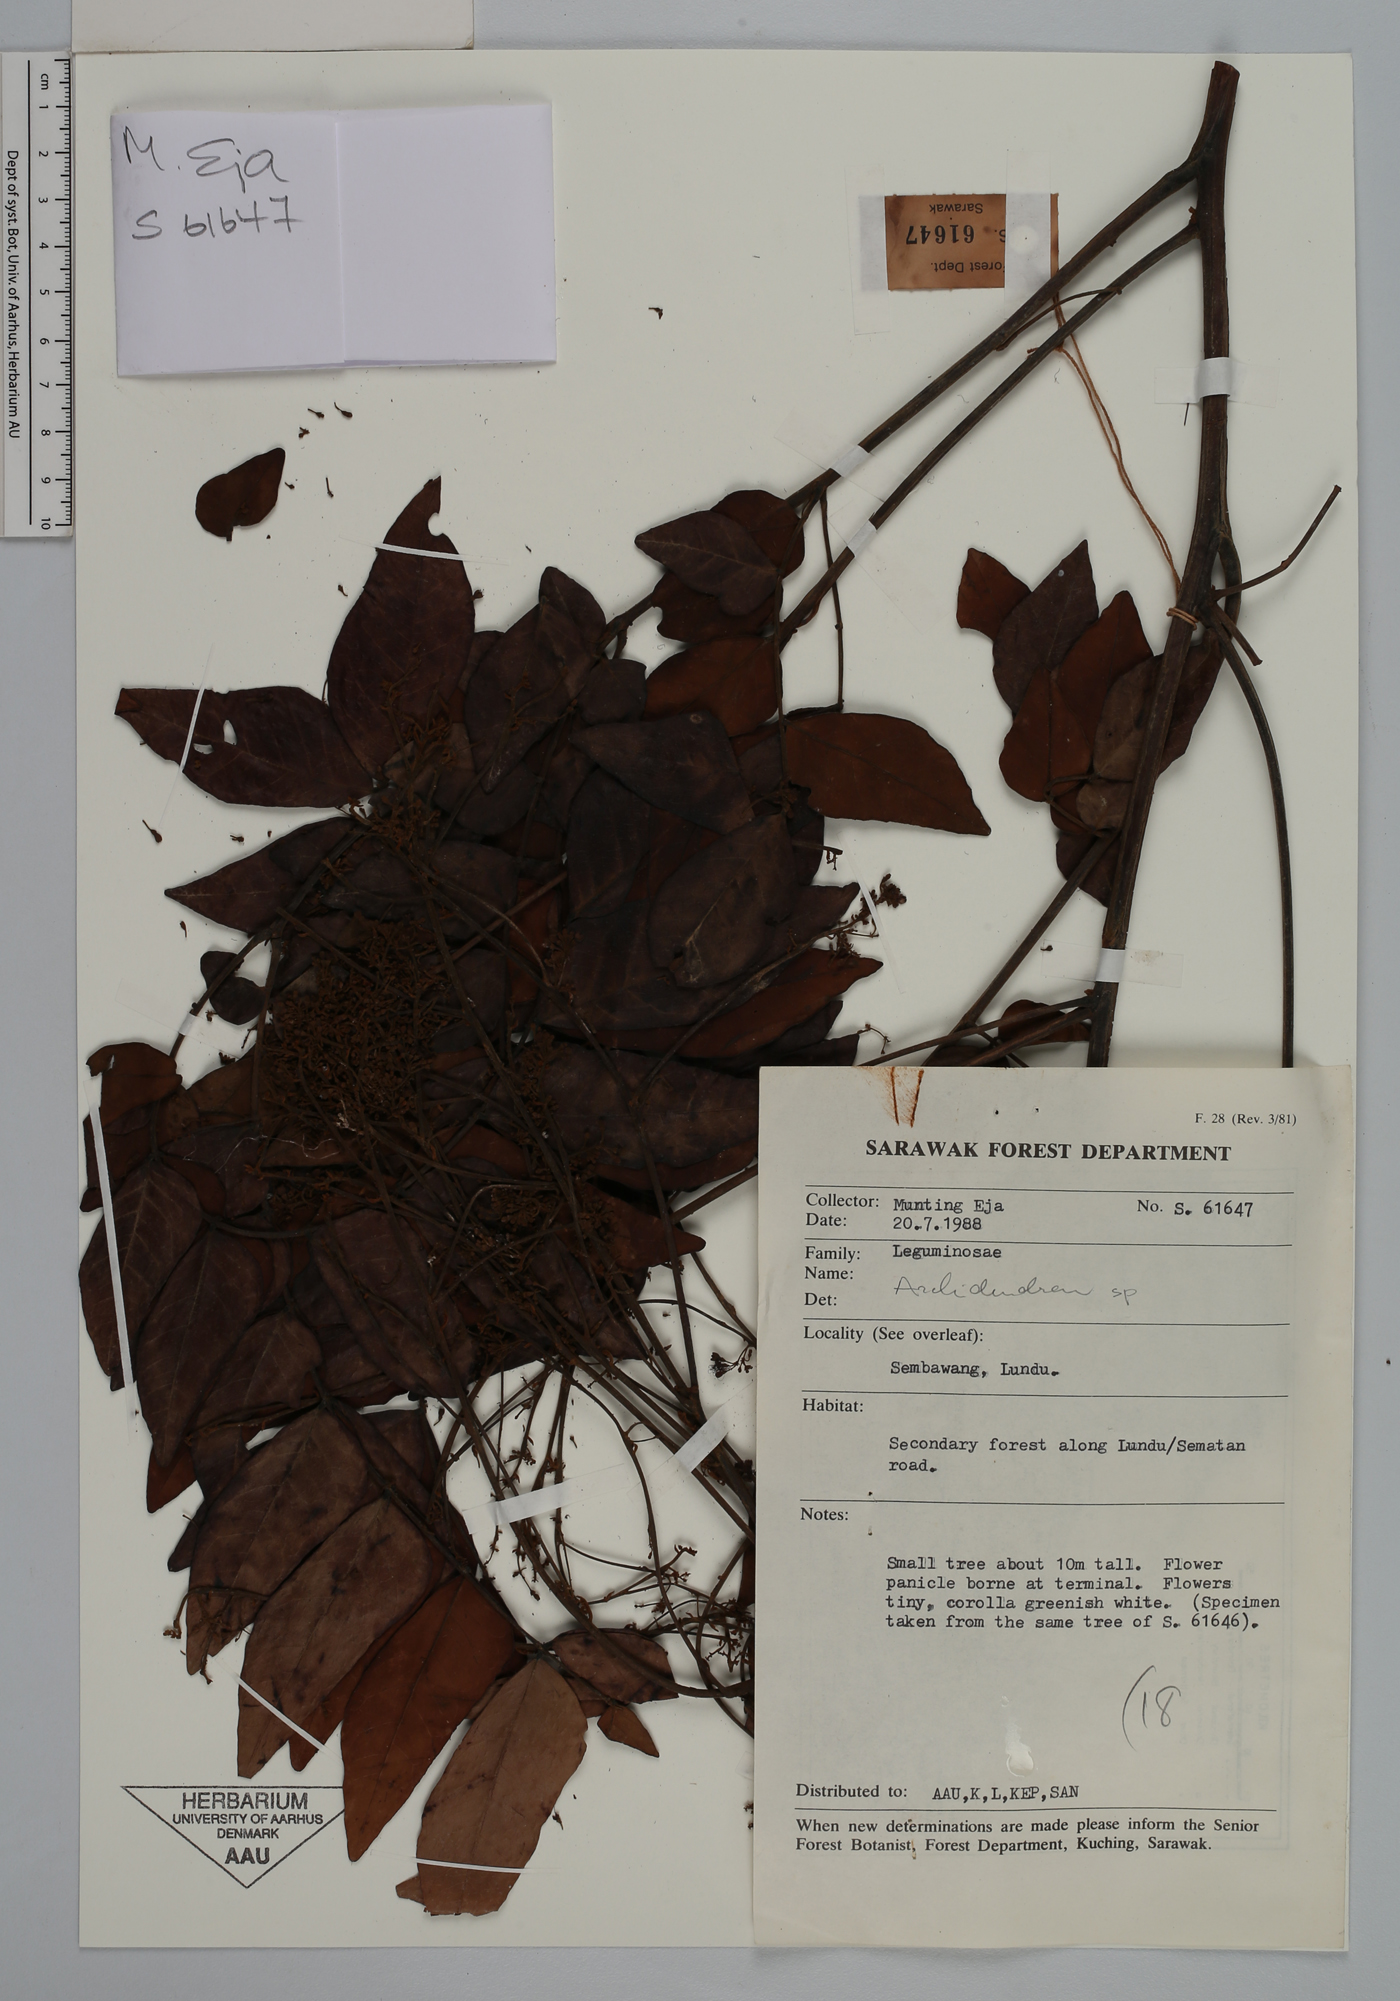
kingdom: Plantae
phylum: Tracheophyta
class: Magnoliopsida
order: Fabales
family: Fabaceae
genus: Archidendron
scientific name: Archidendron clypearia
